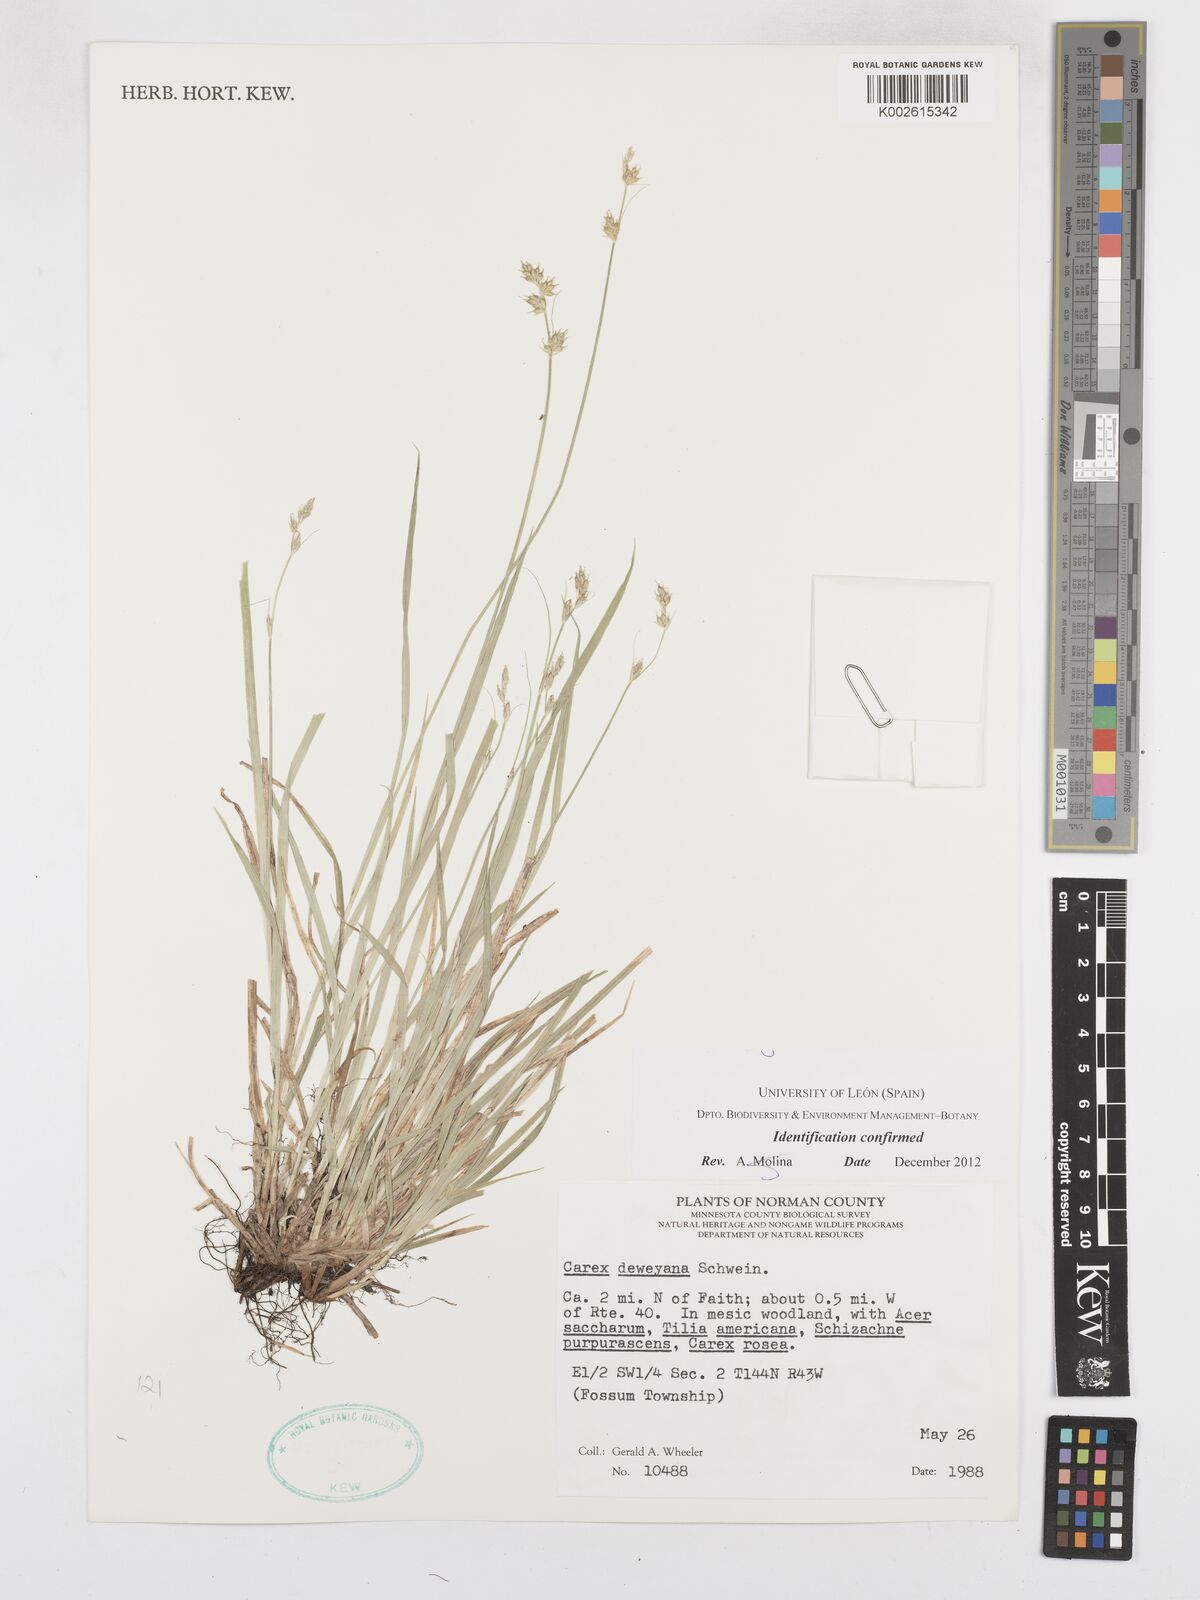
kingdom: Plantae
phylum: Tracheophyta
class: Liliopsida
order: Poales
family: Cyperaceae
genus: Carex
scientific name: Carex deweyana
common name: Dewey's sedge
